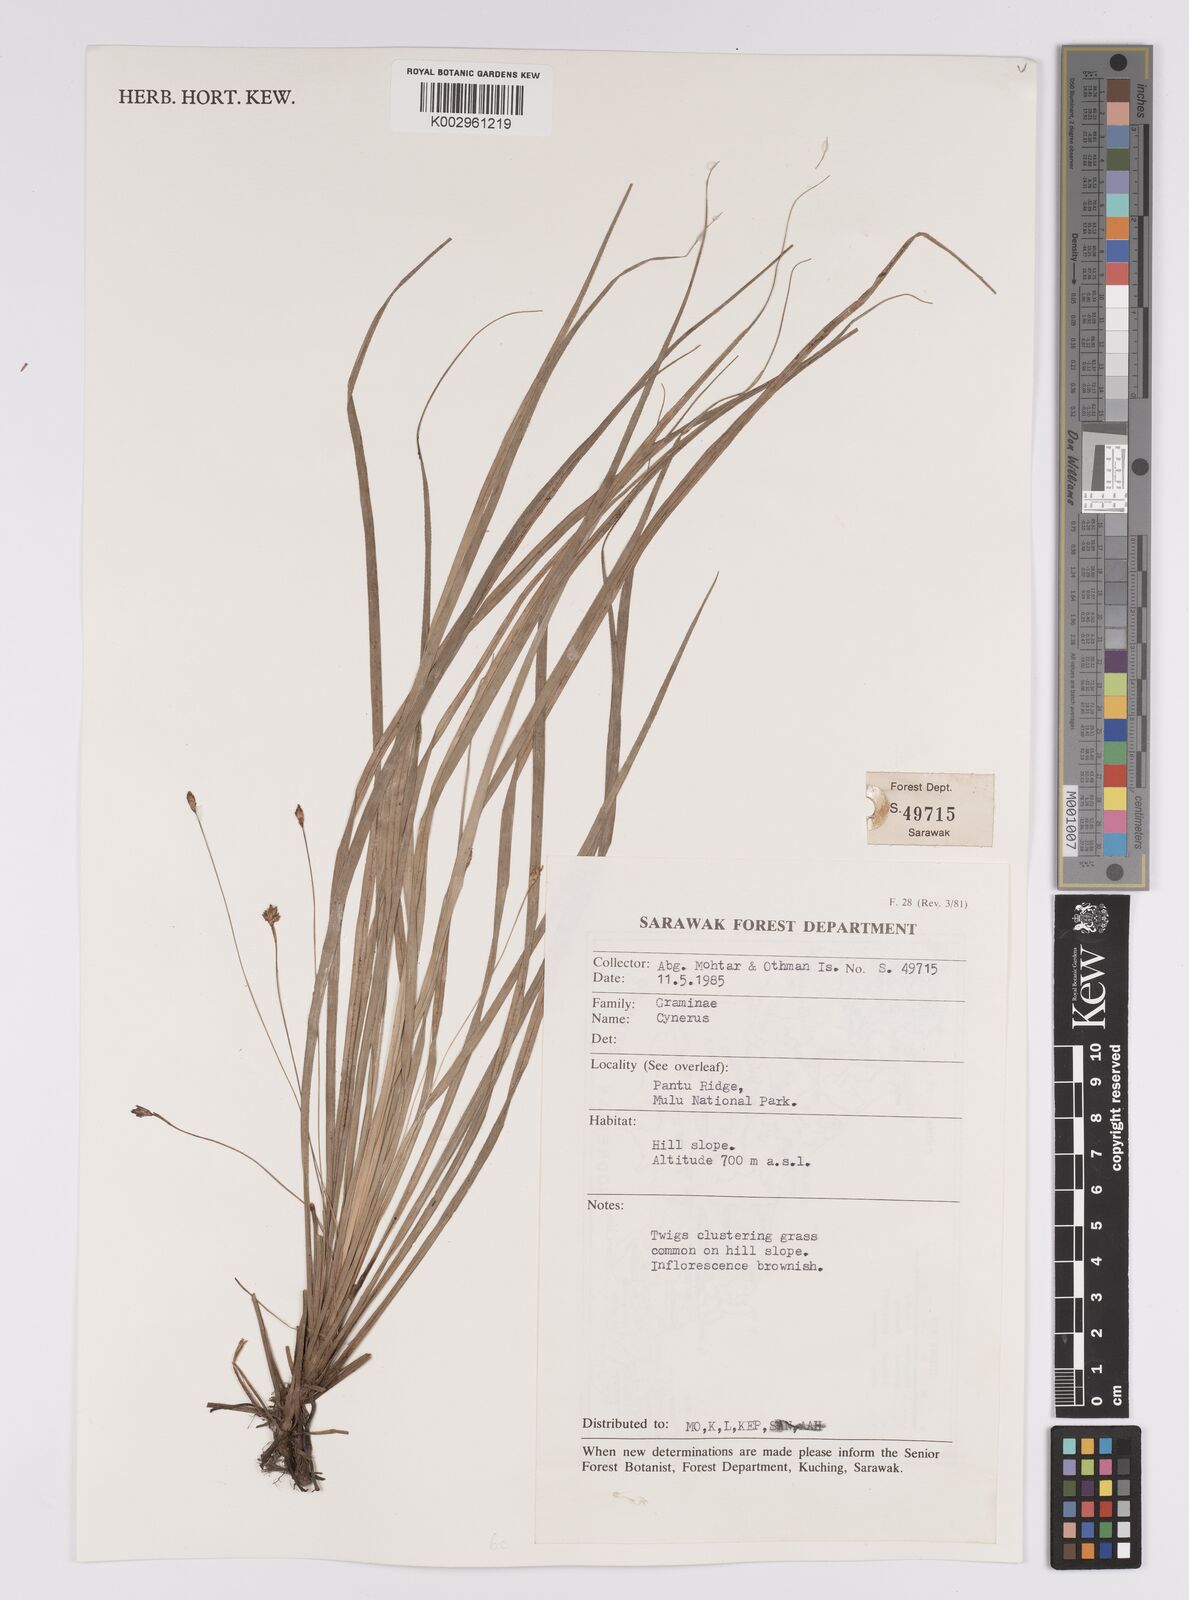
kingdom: Plantae
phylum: Tracheophyta
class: Liliopsida
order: Poales
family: Cyperaceae
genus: Mapania
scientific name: Mapania monostachya
